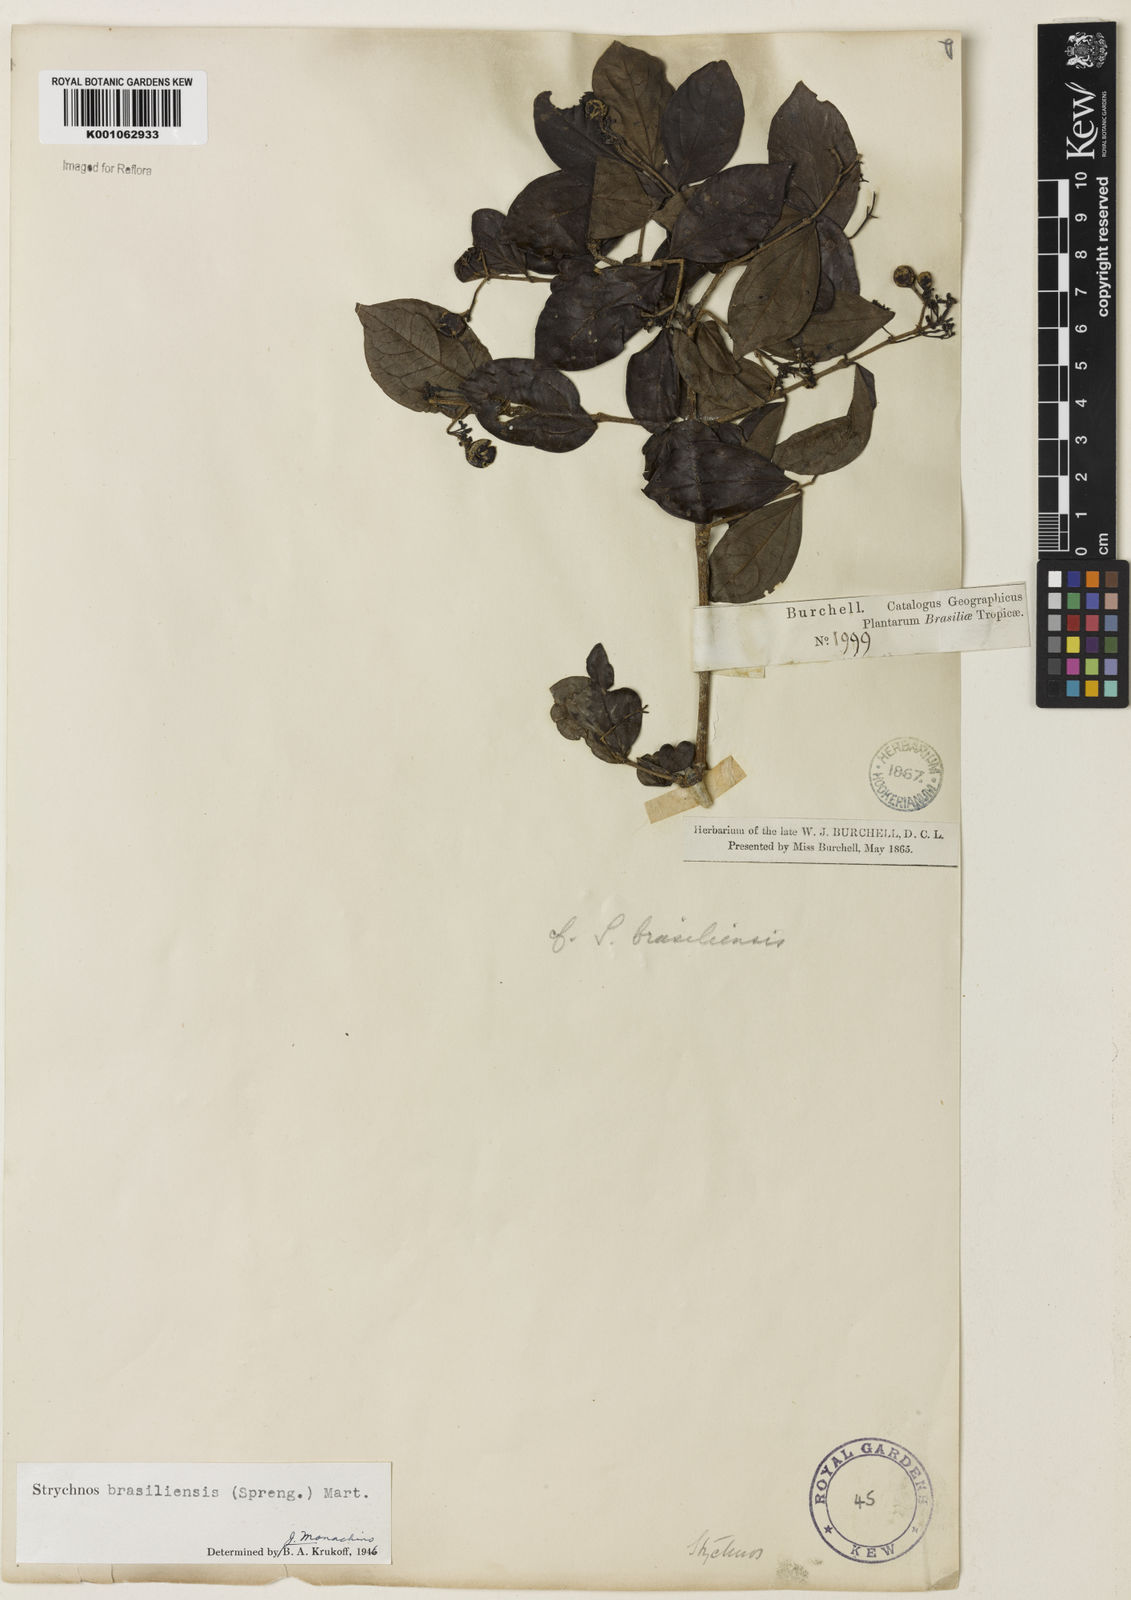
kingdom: Plantae
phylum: Tracheophyta
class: Magnoliopsida
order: Gentianales
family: Loganiaceae
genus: Strychnos
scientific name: Strychnos brasiliensis
